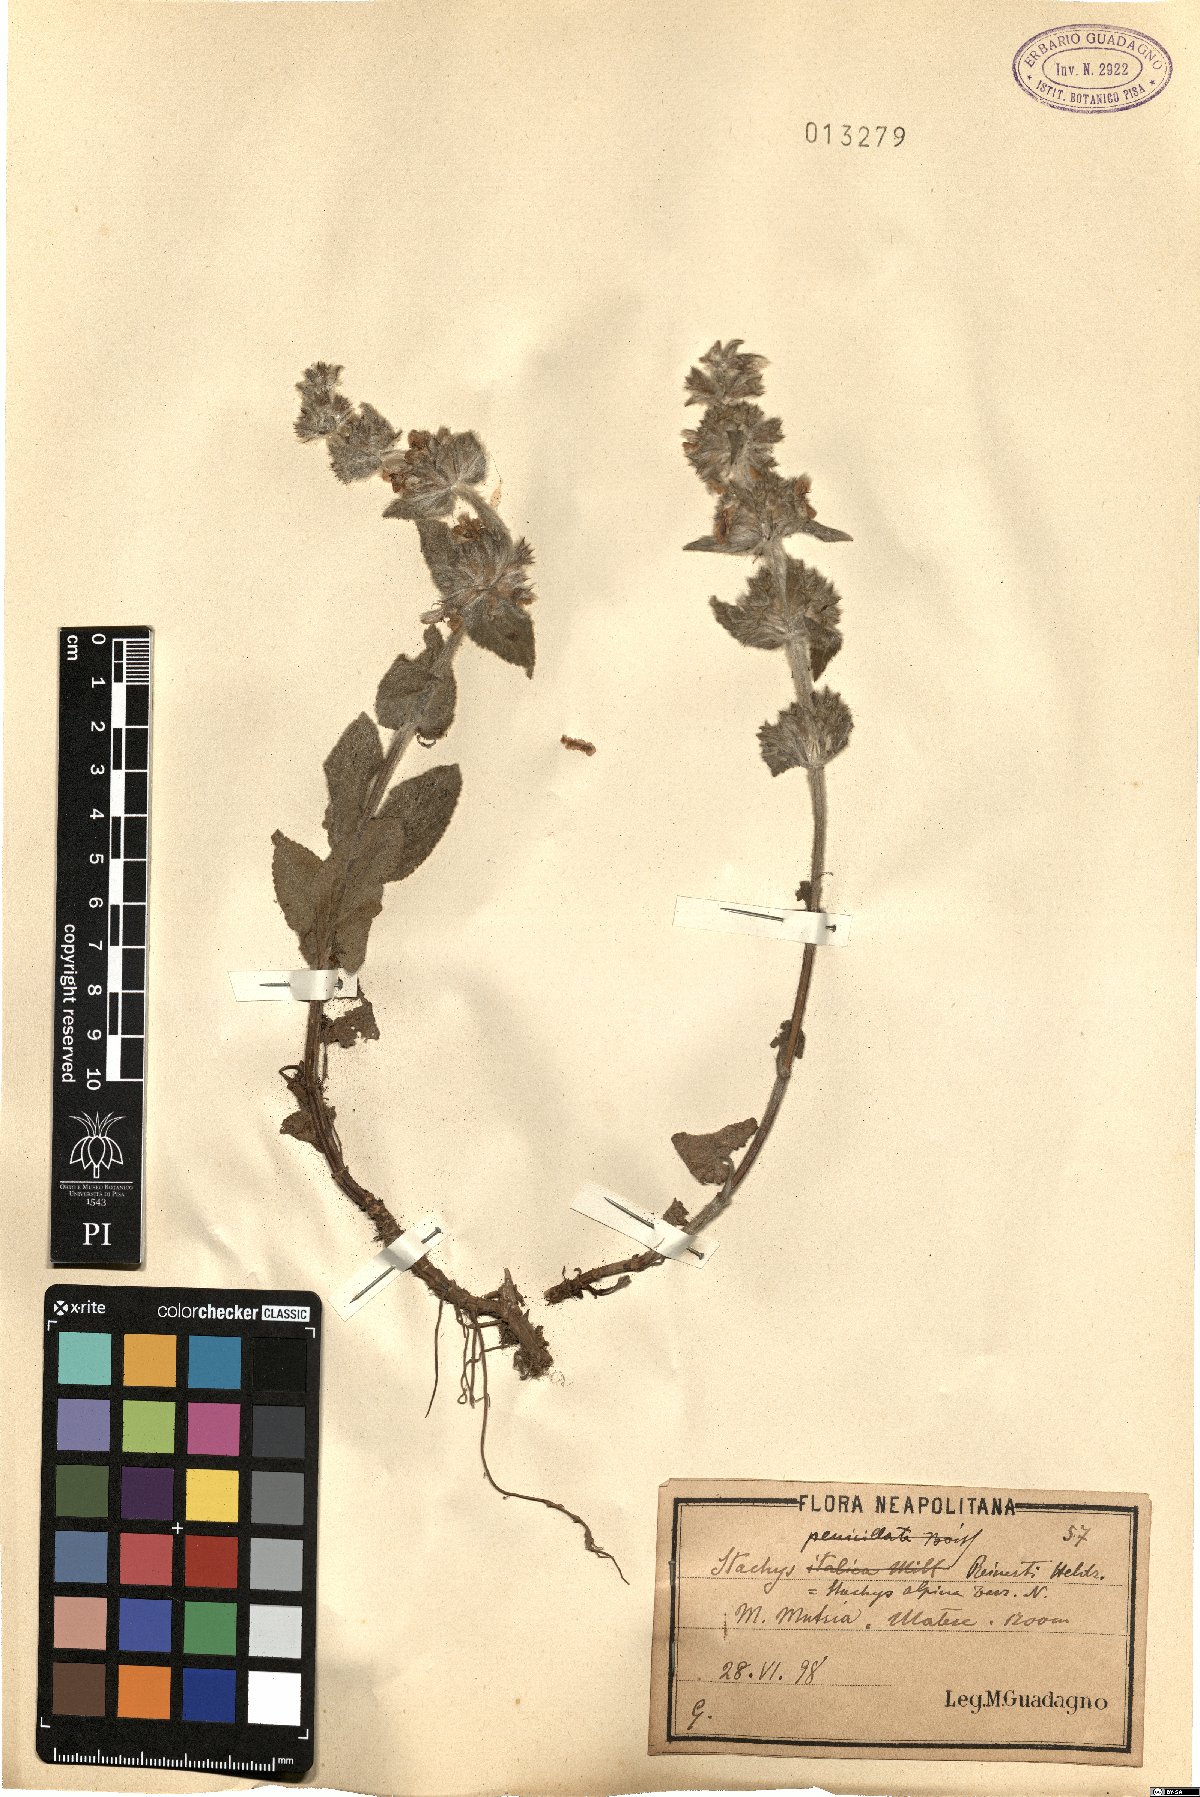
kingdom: Plantae
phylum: Tracheophyta
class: Magnoliopsida
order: Lamiales
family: Lamiaceae
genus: Stachys
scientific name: Stachys tymphaea
